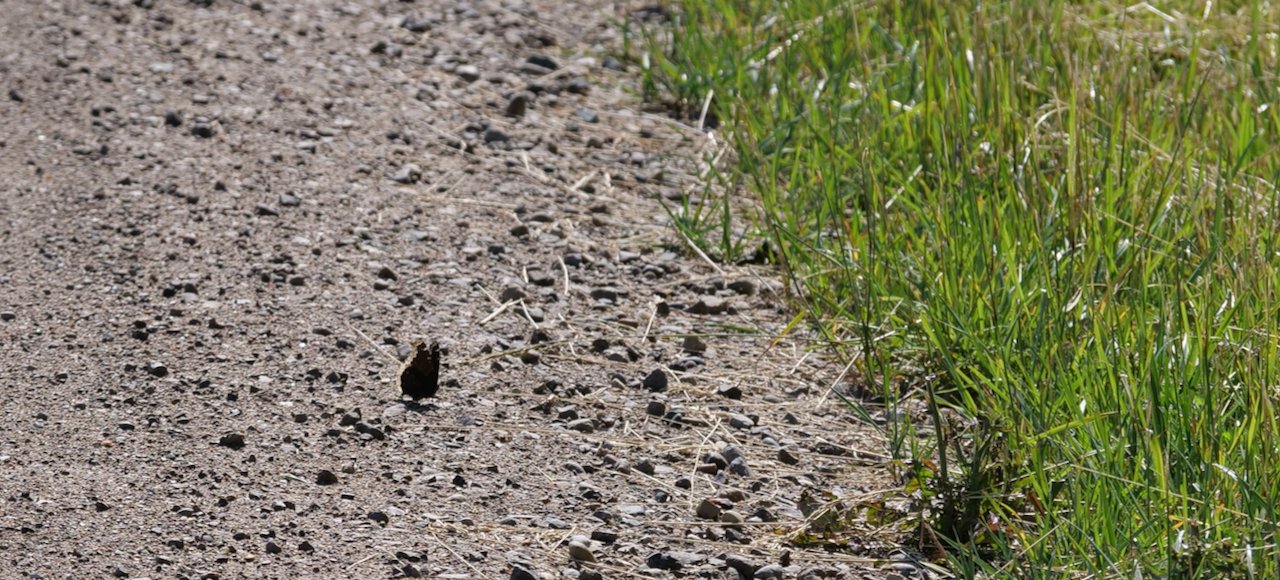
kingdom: Animalia
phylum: Arthropoda
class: Insecta
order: Lepidoptera
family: Nymphalidae
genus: Nymphalis
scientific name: Nymphalis antiopa
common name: Mourning Cloak
